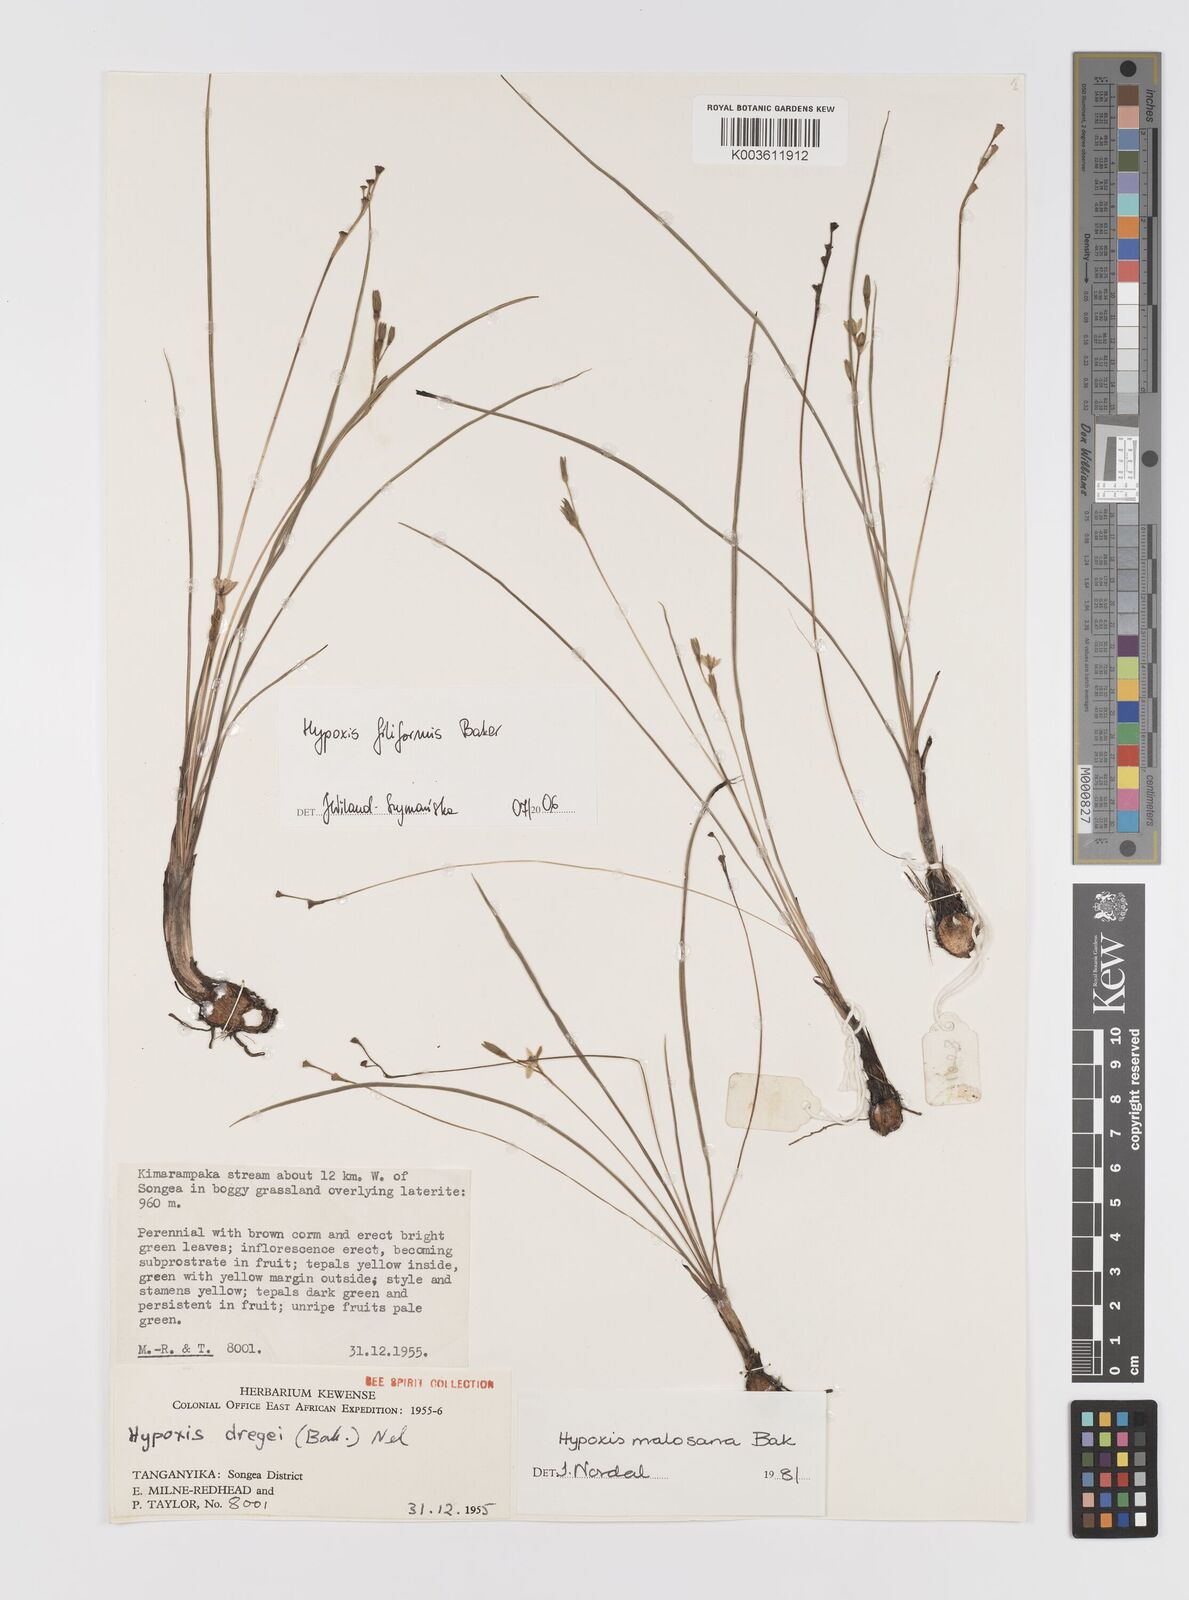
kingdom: Plantae
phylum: Tracheophyta
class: Liliopsida
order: Asparagales
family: Hypoxidaceae
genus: Hypoxis
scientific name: Hypoxis filiformis
